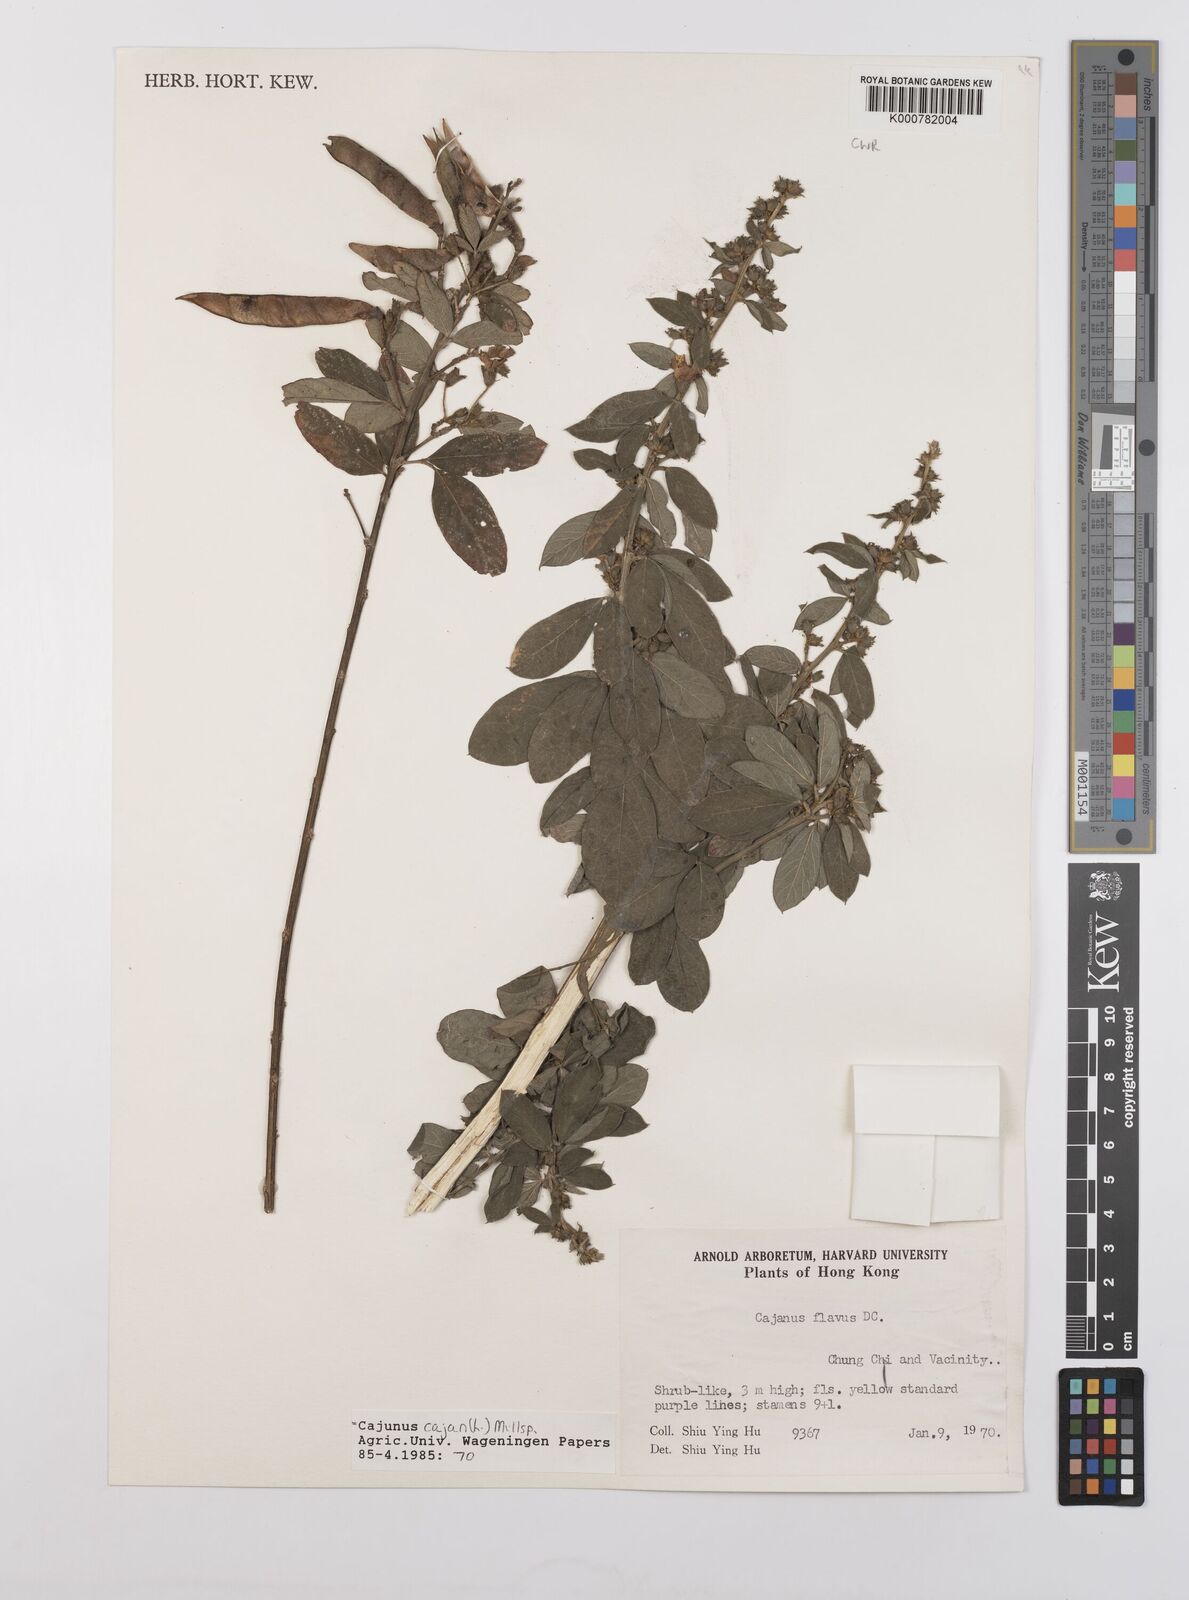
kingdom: Plantae
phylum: Tracheophyta
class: Magnoliopsida
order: Fabales
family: Fabaceae
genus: Cajanus
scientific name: Cajanus
